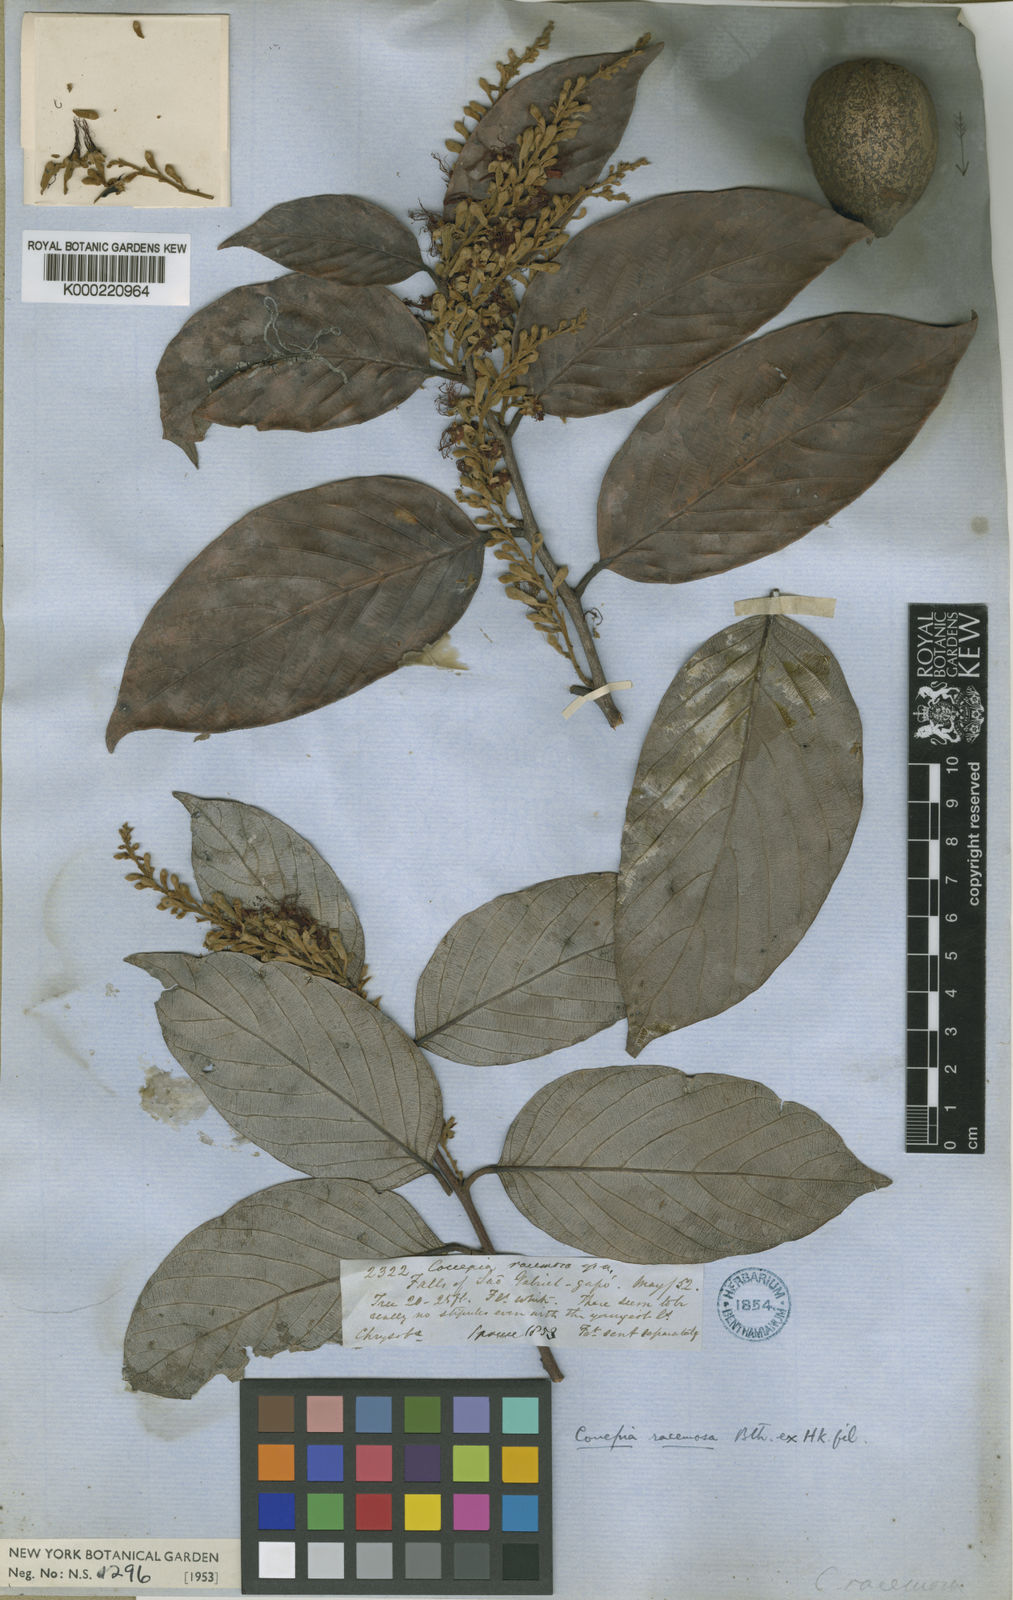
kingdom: Plantae
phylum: Tracheophyta
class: Magnoliopsida
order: Malpighiales
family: Chrysobalanaceae
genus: Gaulettia
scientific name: Gaulettia racemosa
